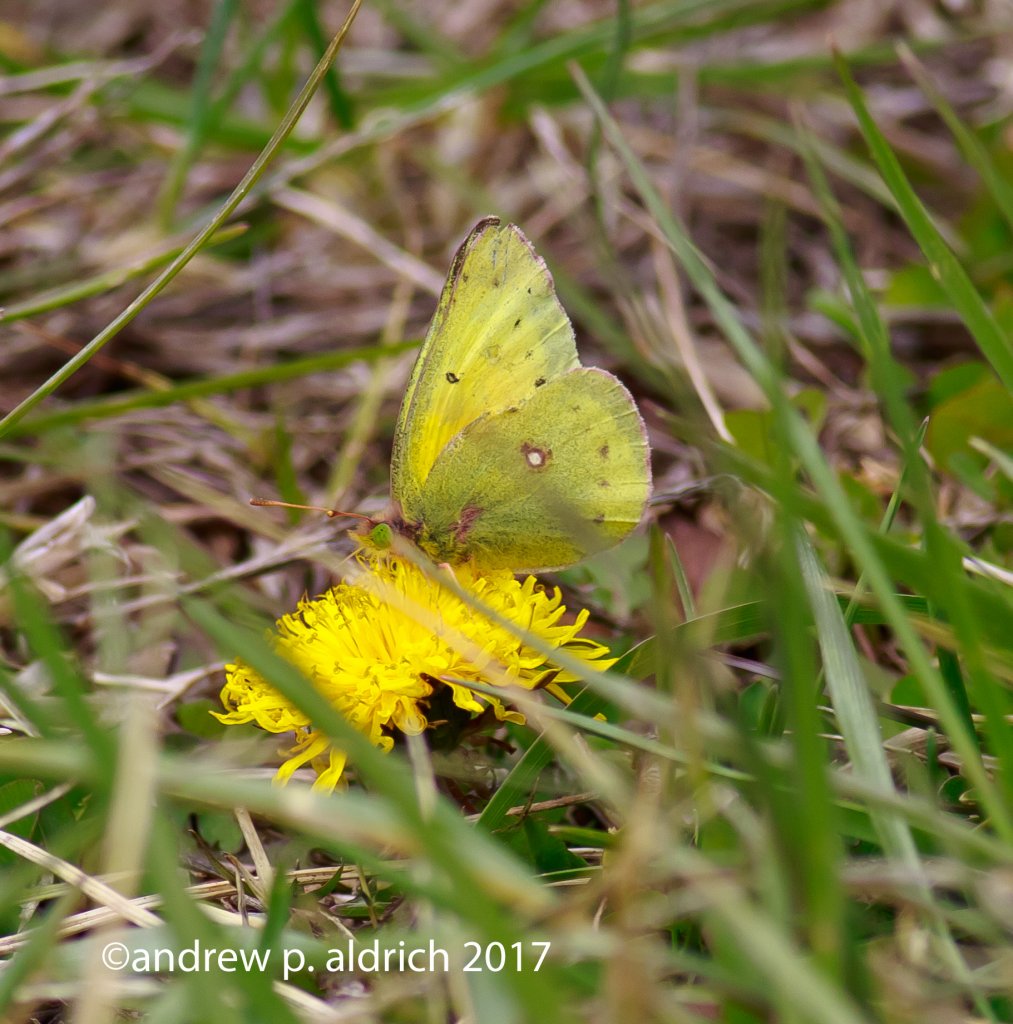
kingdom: Animalia
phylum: Arthropoda
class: Insecta
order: Lepidoptera
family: Pieridae
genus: Colias
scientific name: Colias philodice
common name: Clouded Sulphur
